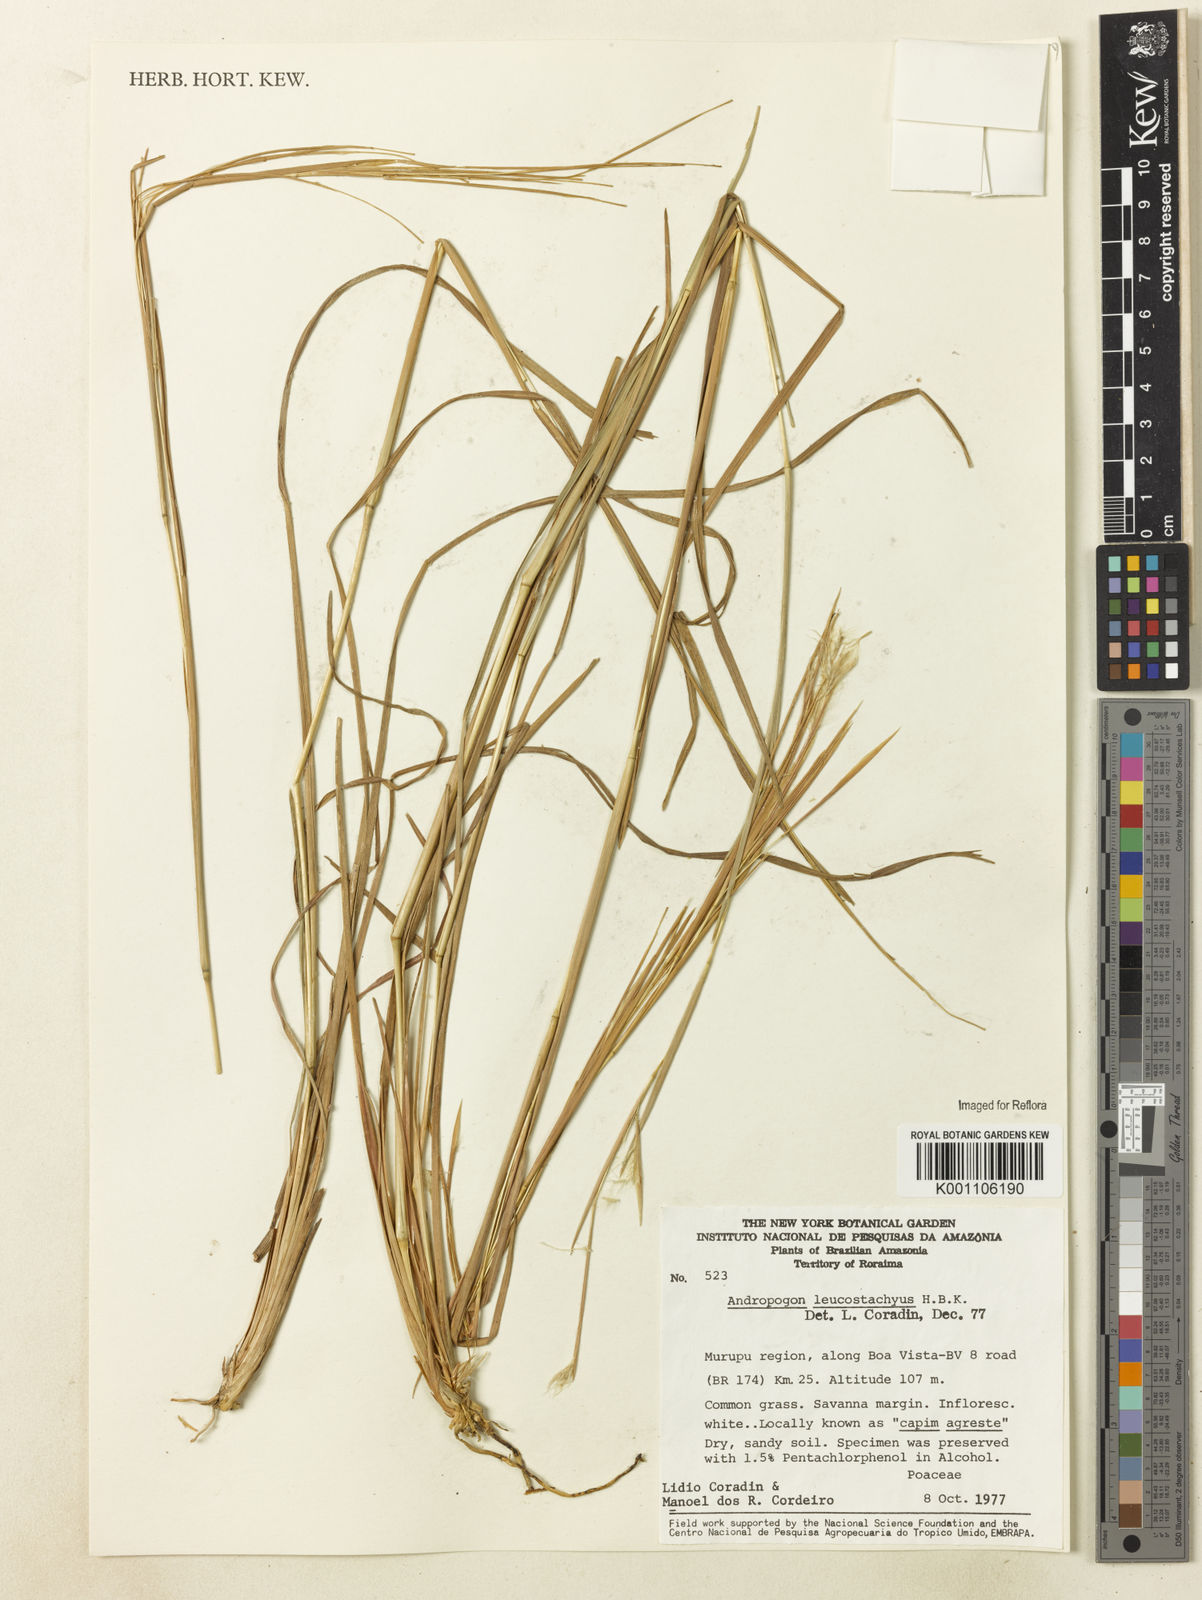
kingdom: Plantae
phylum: Tracheophyta
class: Liliopsida
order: Poales
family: Poaceae
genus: Andropogon
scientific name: Andropogon leucostachyus
